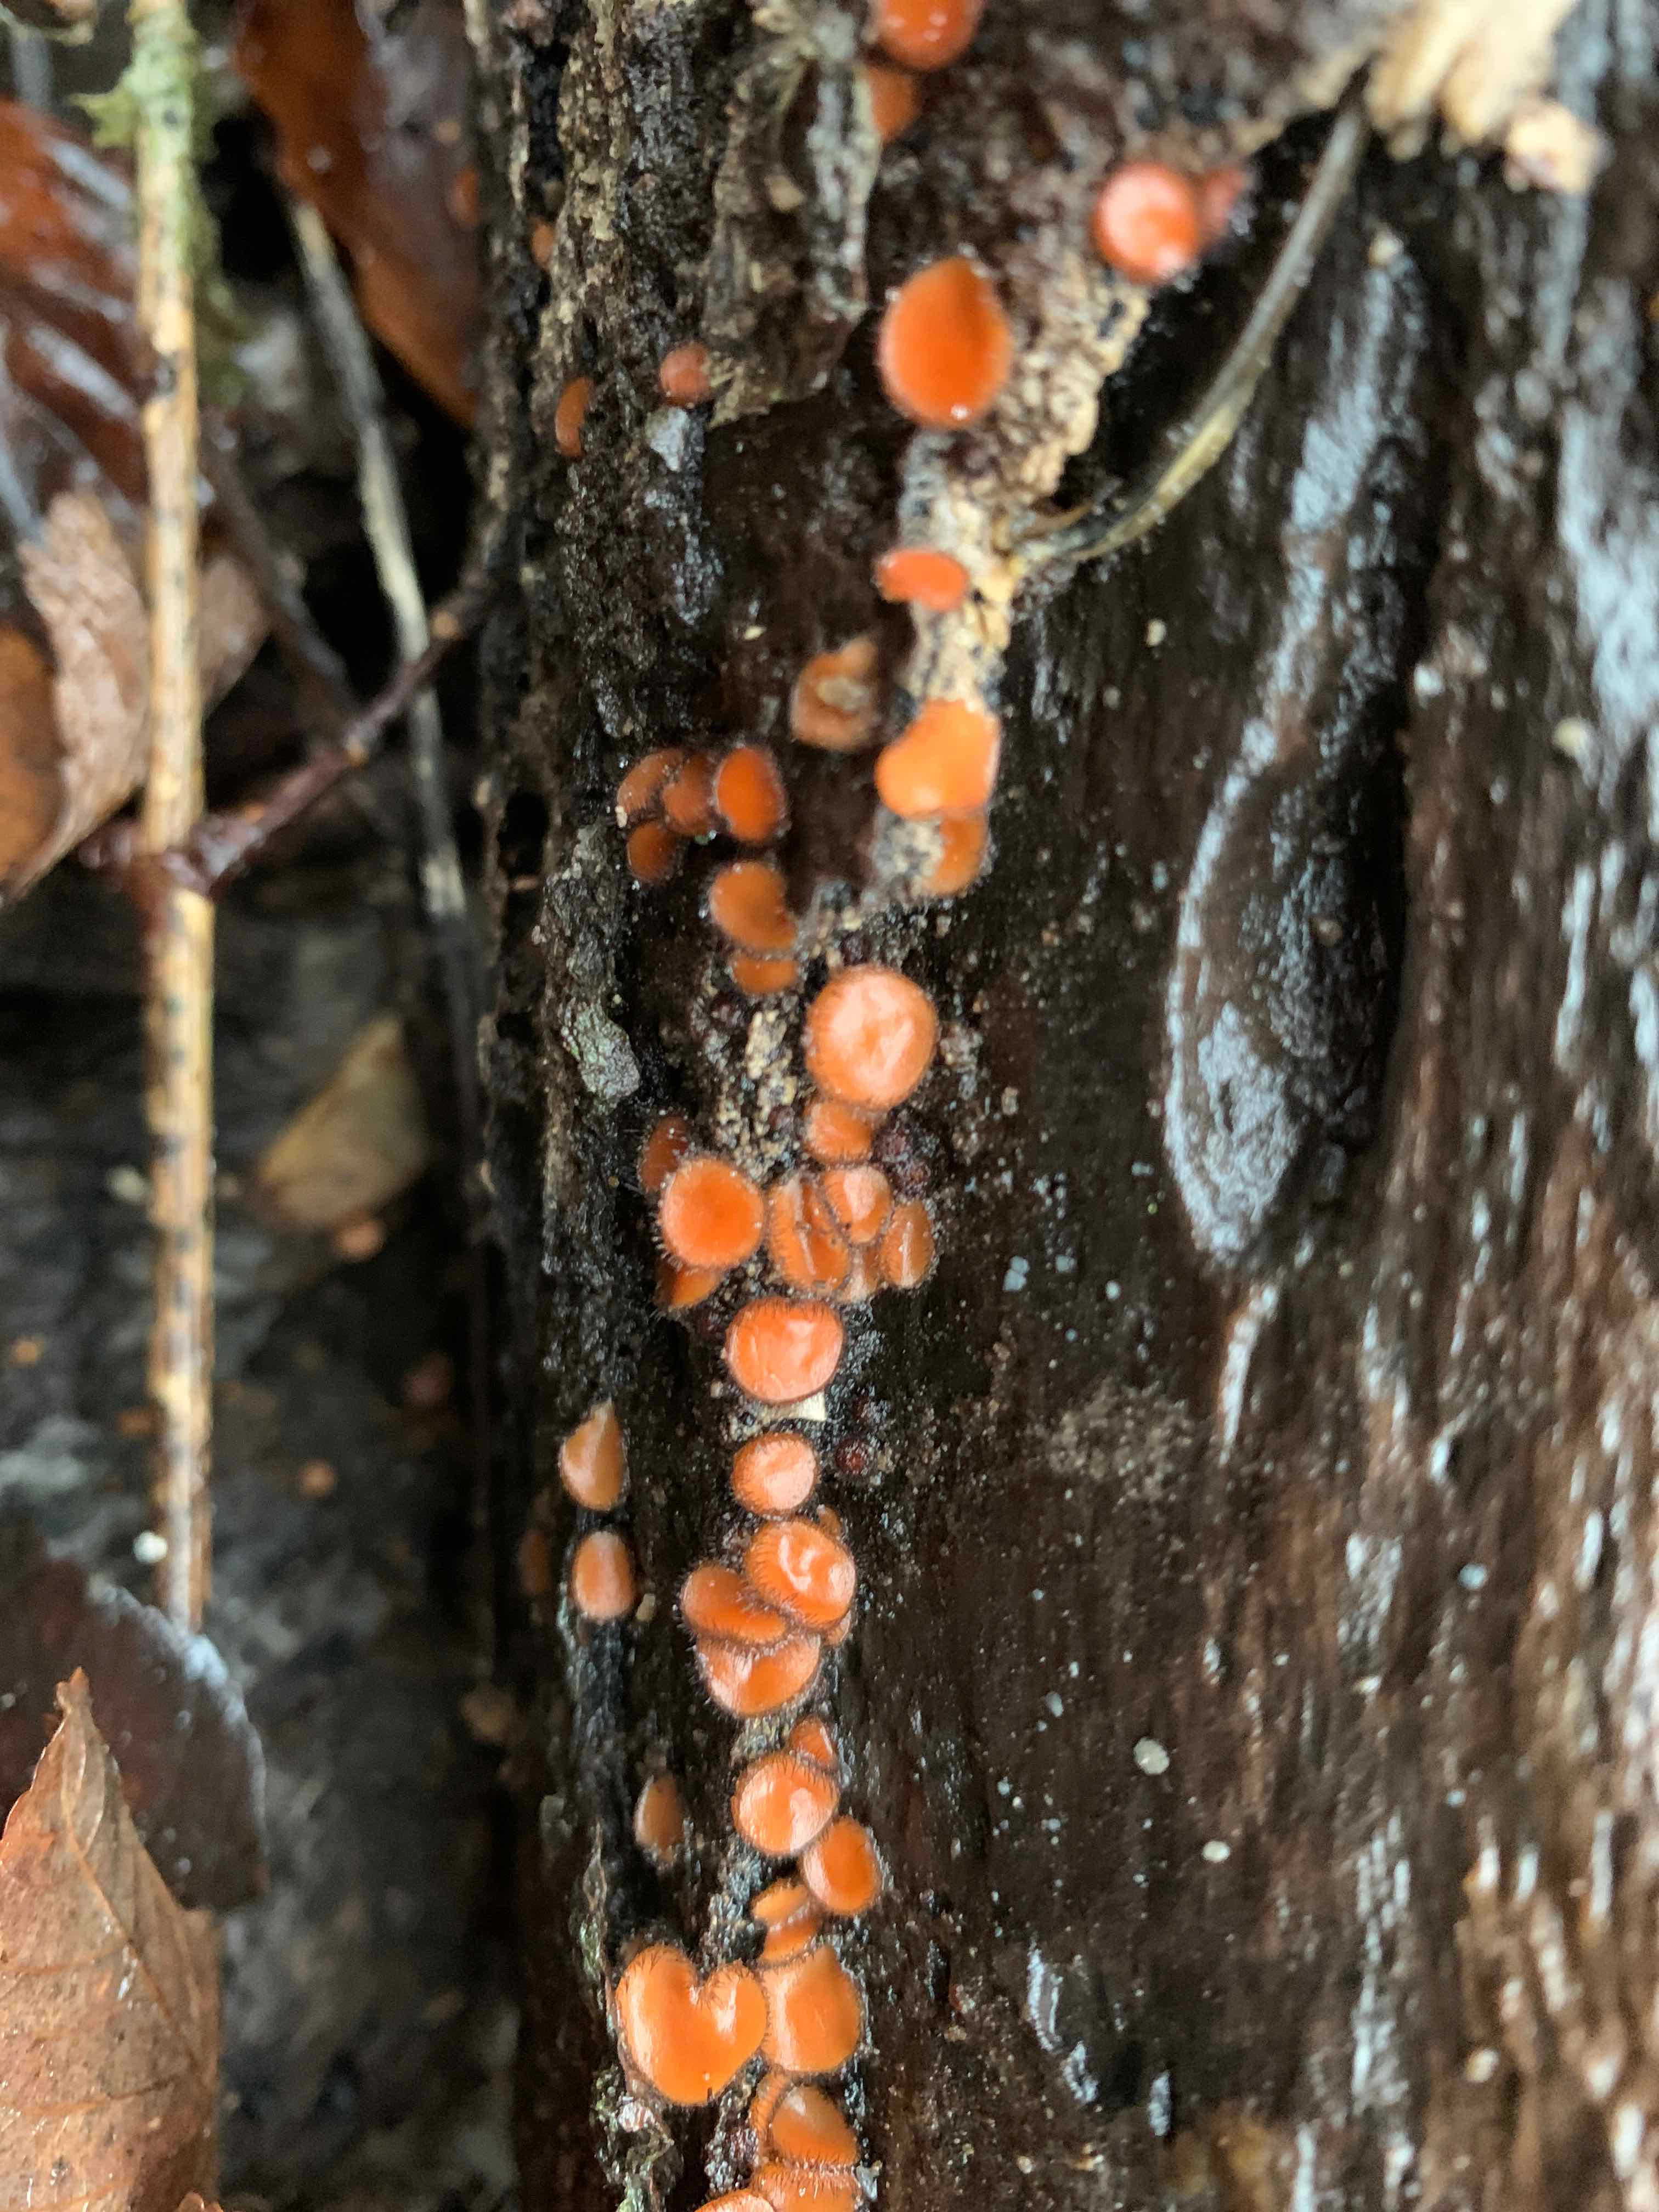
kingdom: Fungi
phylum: Ascomycota
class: Pezizomycetes
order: Pezizales
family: Pyronemataceae
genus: Scutellinia
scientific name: Scutellinia
